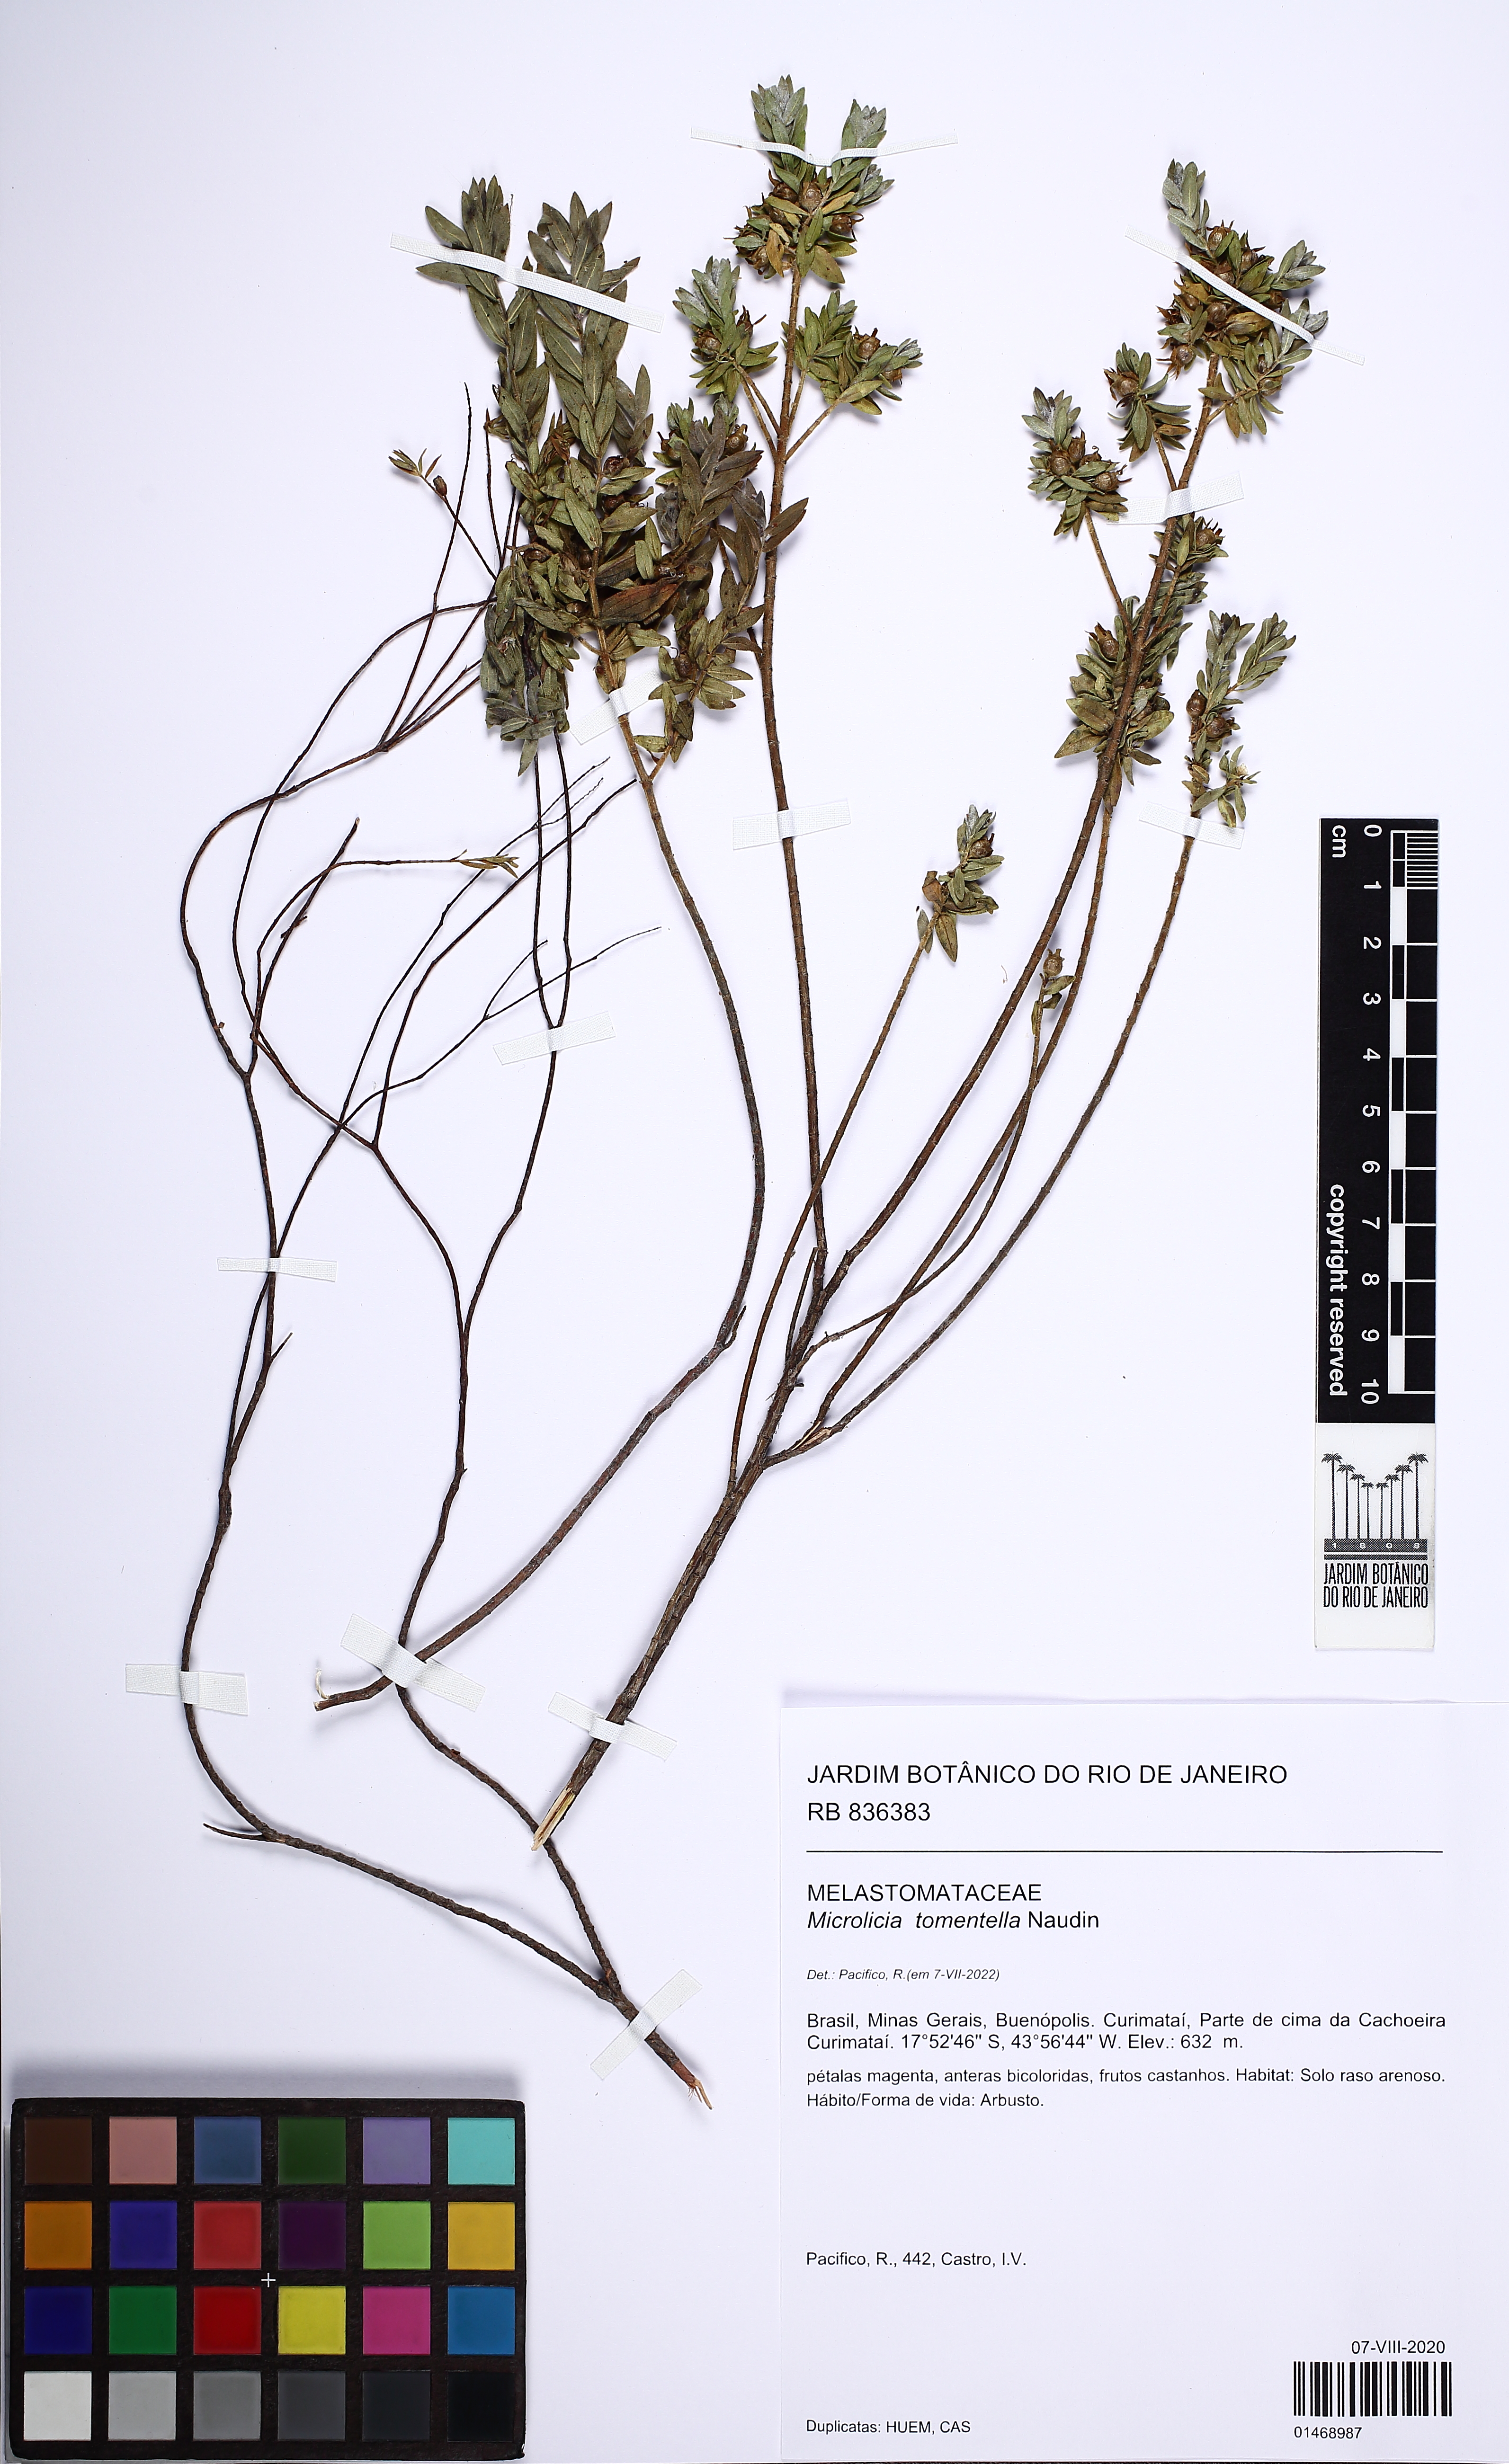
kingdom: Plantae
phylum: Tracheophyta
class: Magnoliopsida
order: Myrtales
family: Melastomataceae
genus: Microlicia
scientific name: Microlicia tomentella
